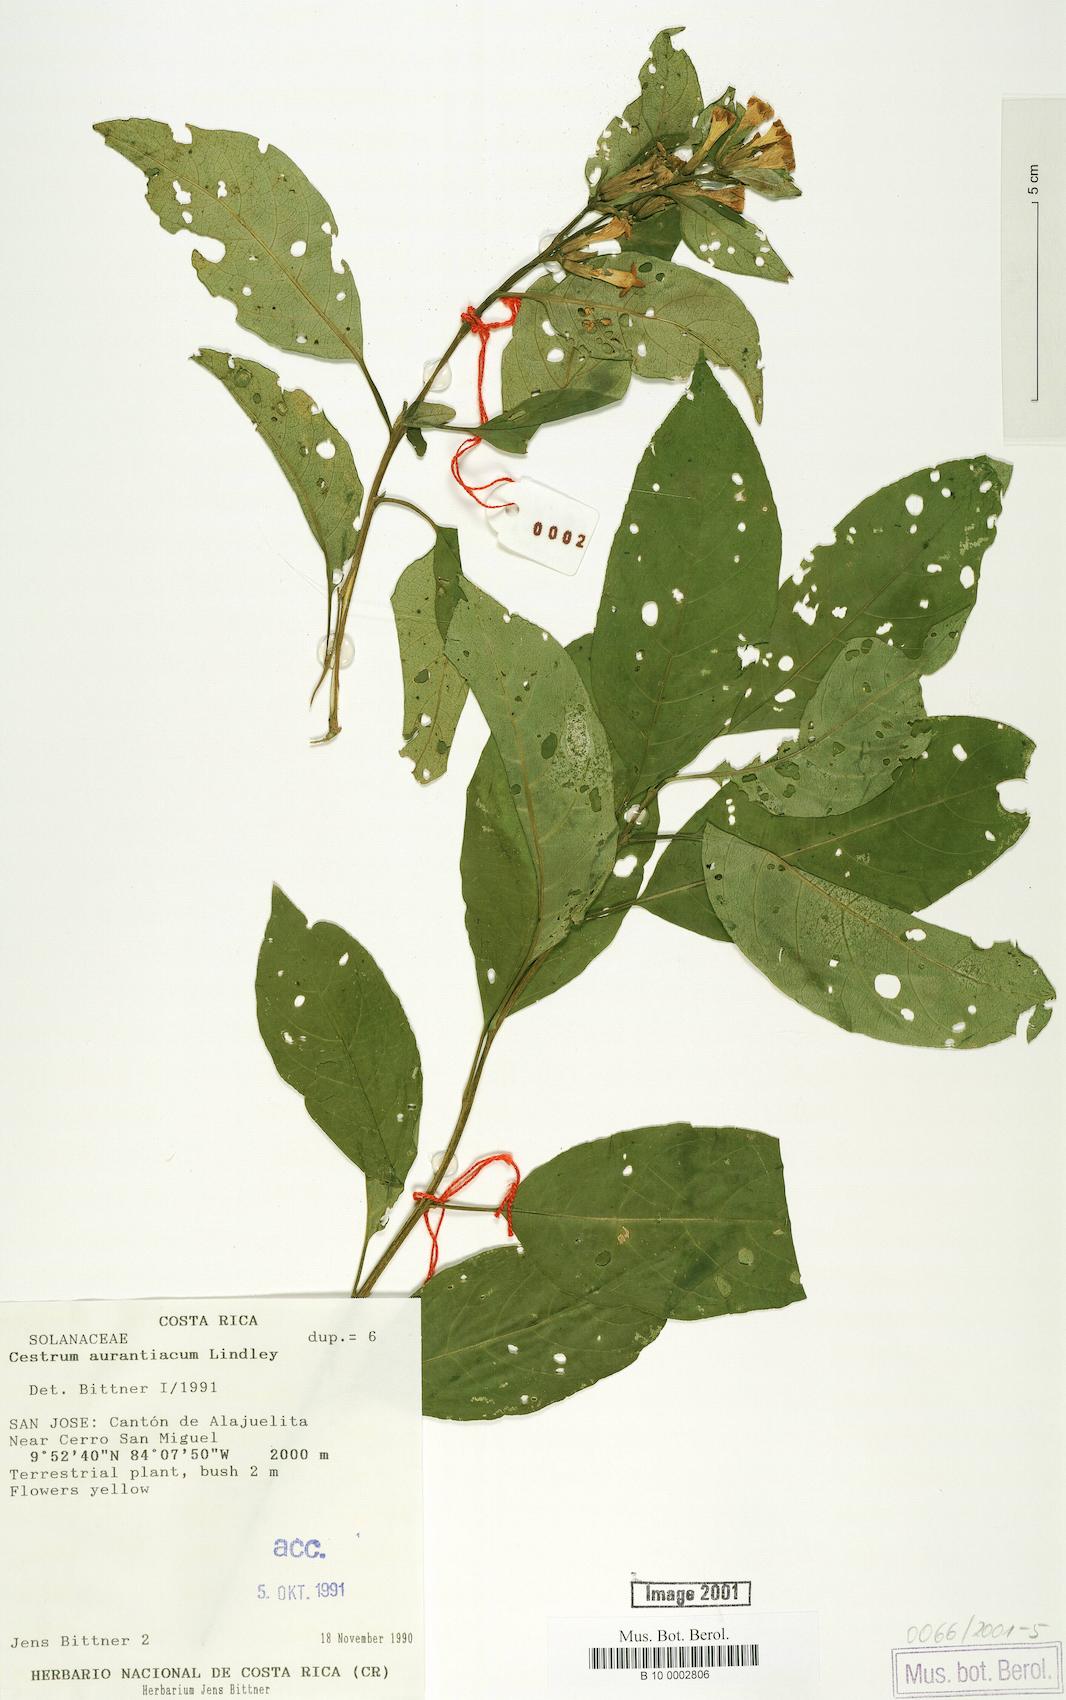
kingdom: Plantae
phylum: Tracheophyta
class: Magnoliopsida
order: Solanales
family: Solanaceae
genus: Cestrum
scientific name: Cestrum aurantiacum
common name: Orange cestrum
